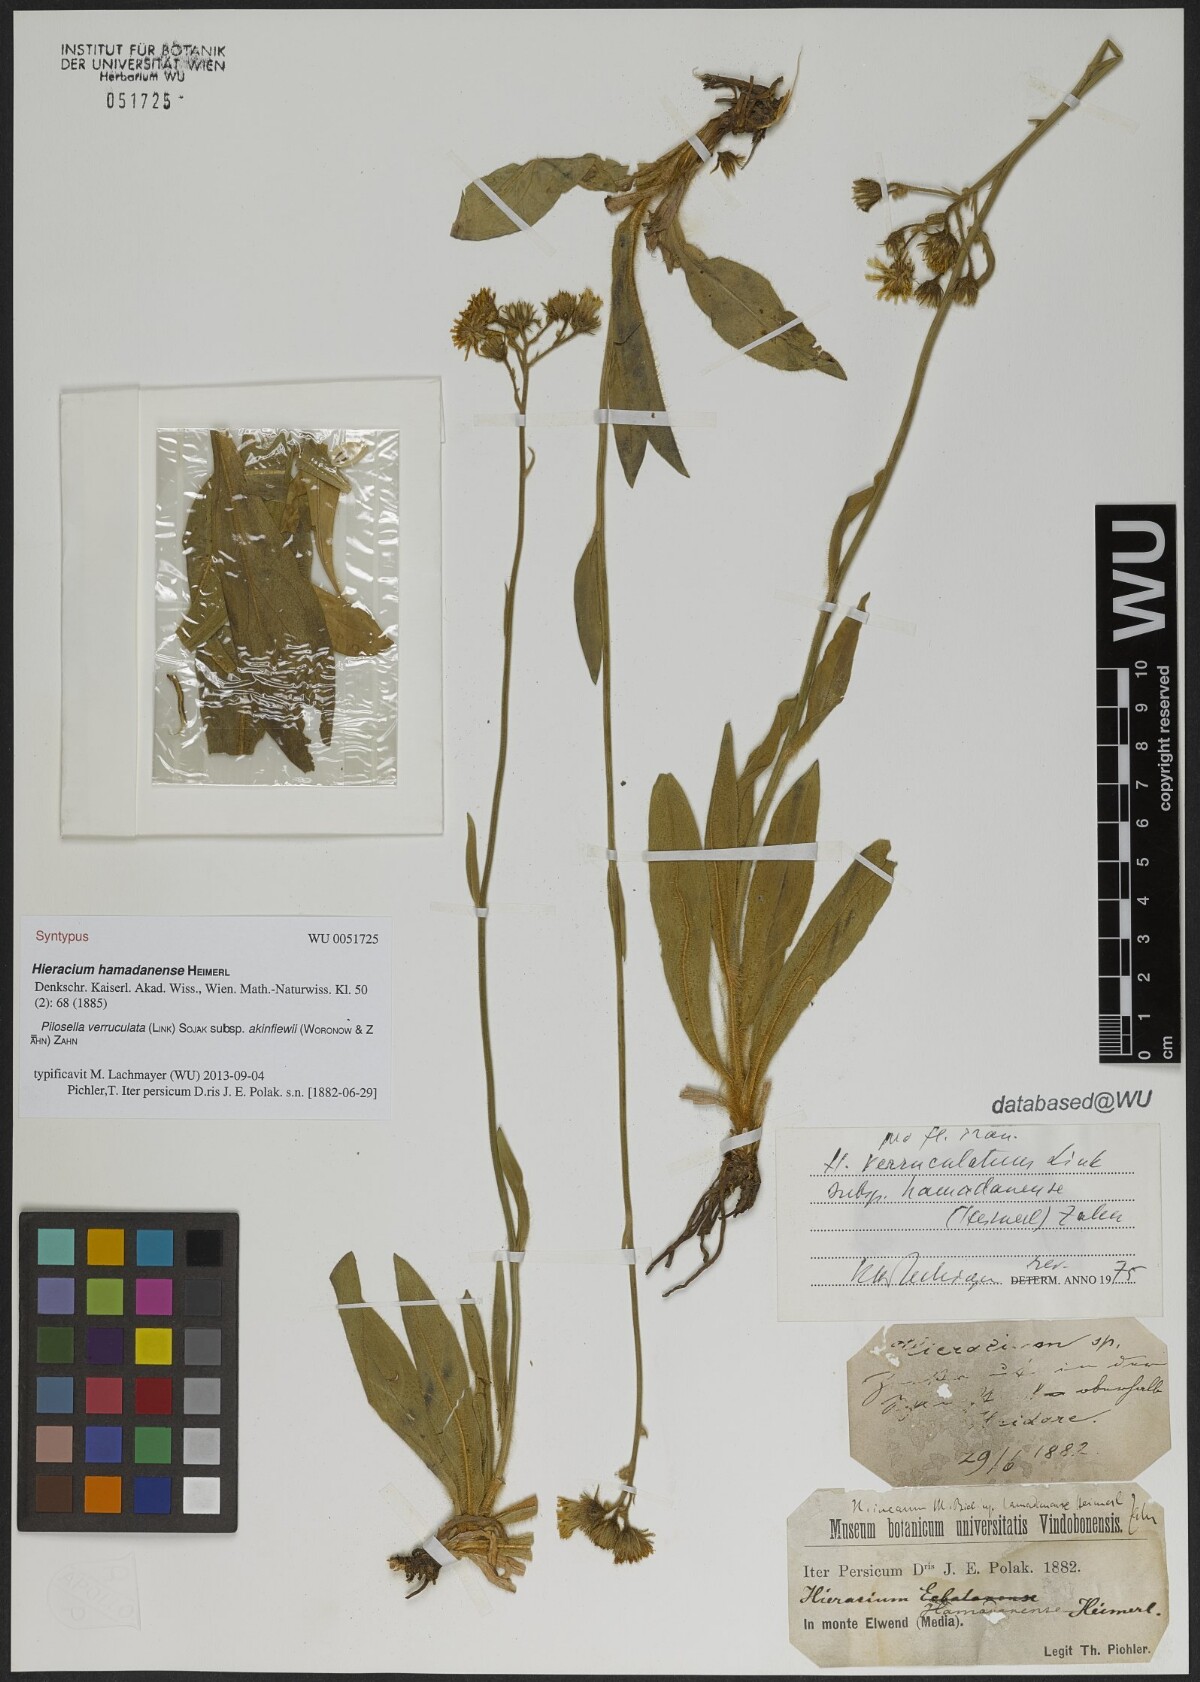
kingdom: Plantae
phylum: Tracheophyta
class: Magnoliopsida
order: Asterales
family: Asteraceae
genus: Pilosella
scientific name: Pilosella verruculata
